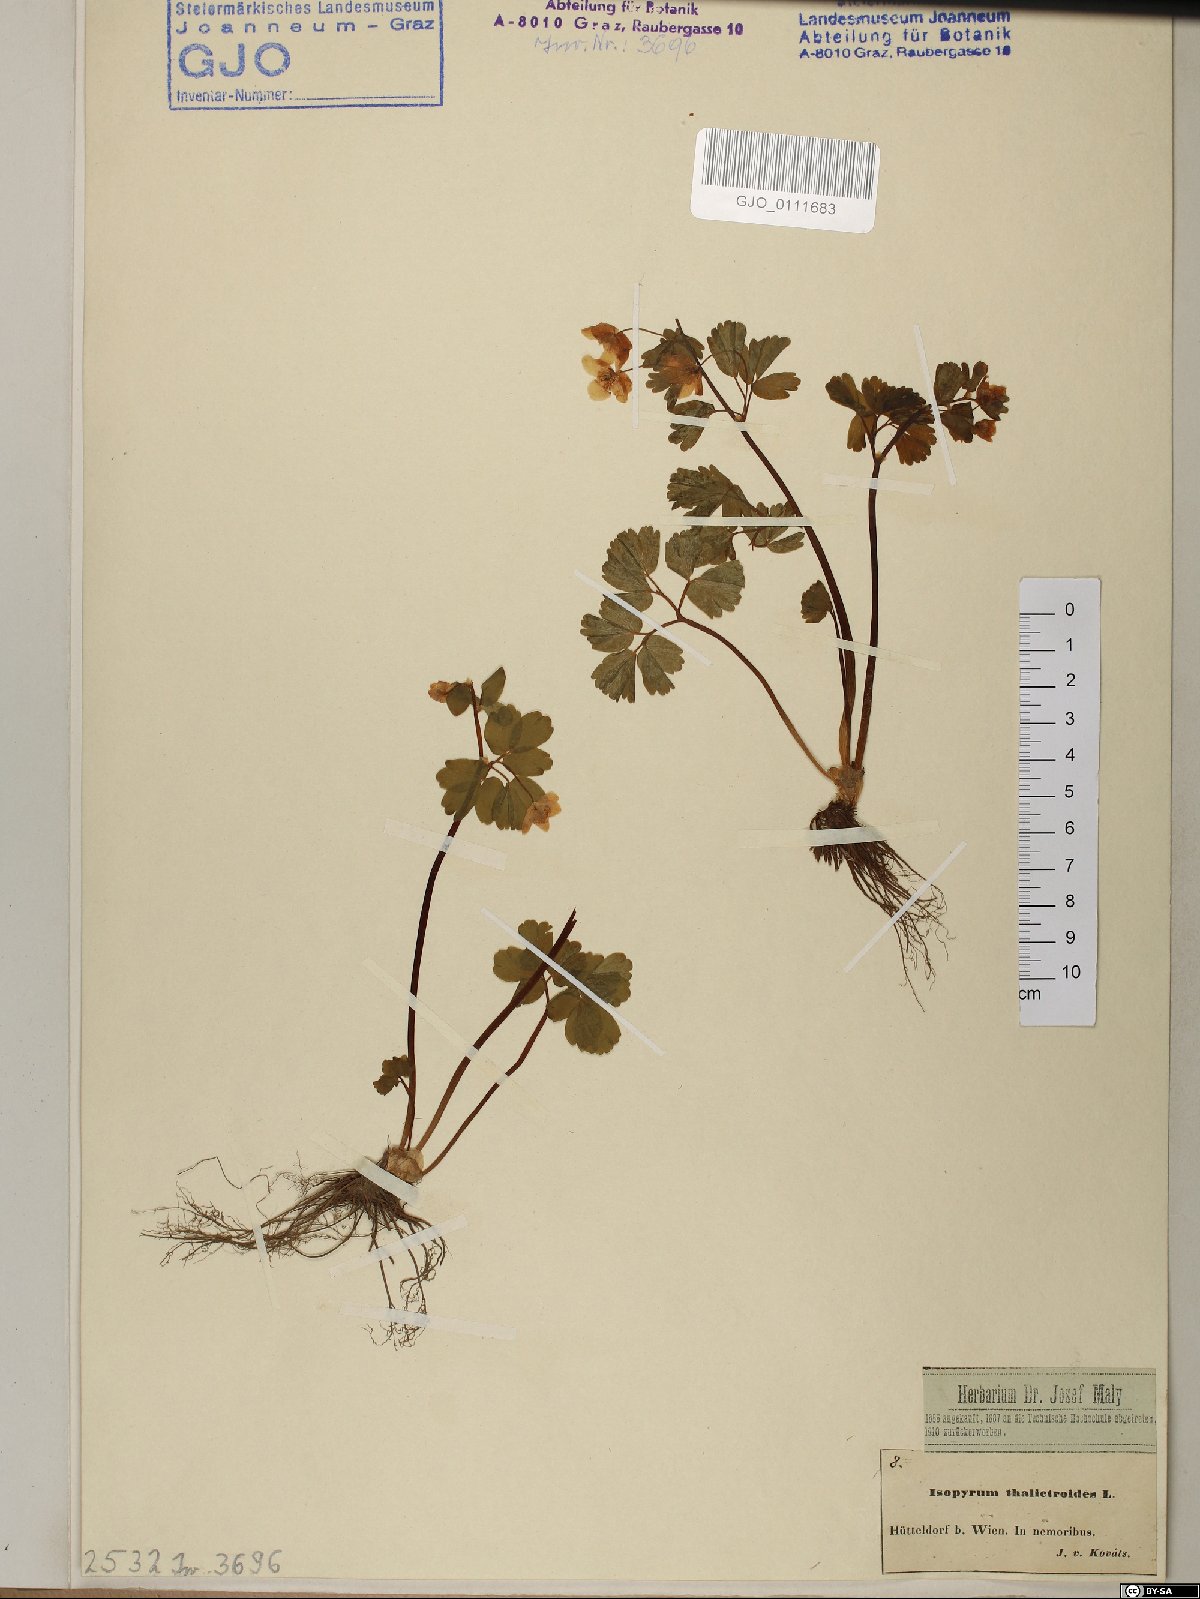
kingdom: Plantae
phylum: Tracheophyta
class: Magnoliopsida
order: Ranunculales
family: Ranunculaceae
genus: Isopyrum
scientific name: Isopyrum thalictroides
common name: Isopyrum
